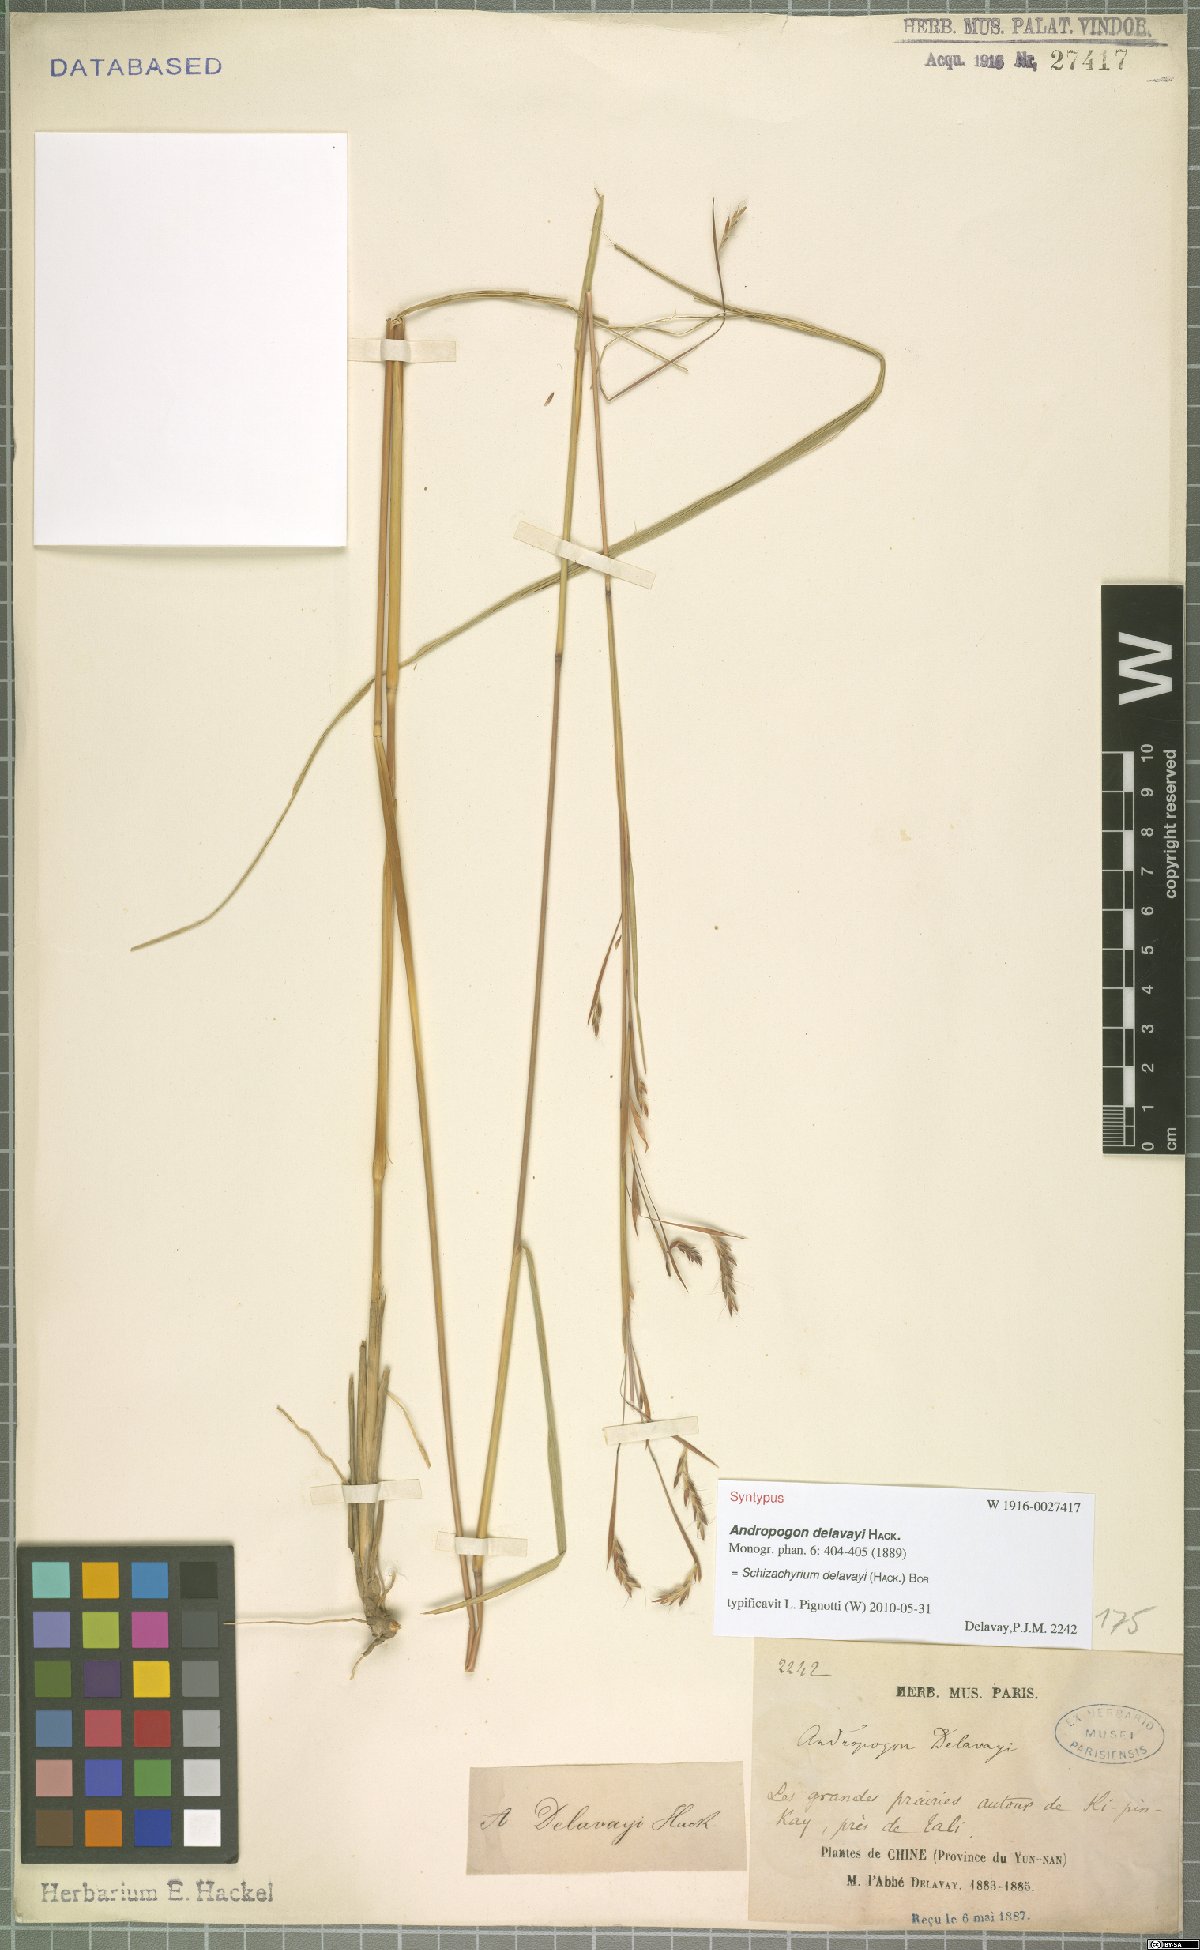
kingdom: Plantae
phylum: Tracheophyta
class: Liliopsida
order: Poales
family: Poaceae
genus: Schizachyrium
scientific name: Schizachyrium delavayi
